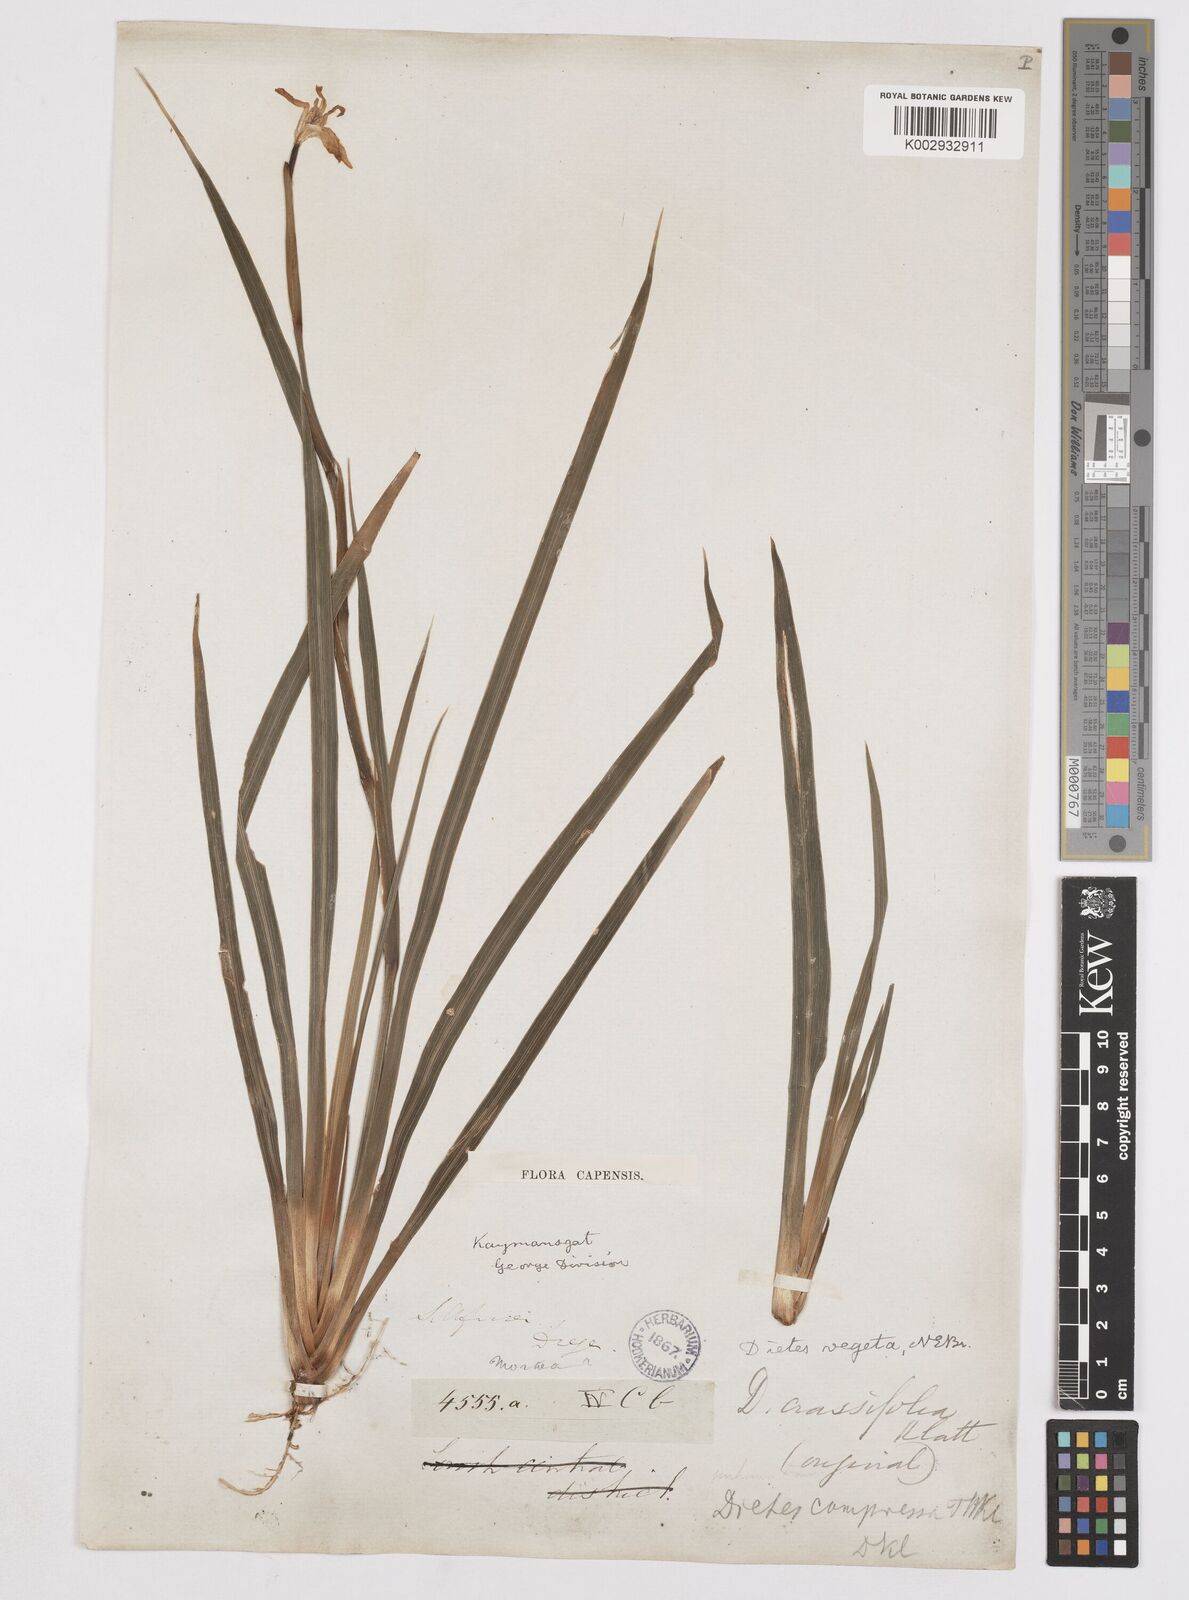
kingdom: Plantae
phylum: Tracheophyta
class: Liliopsida
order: Asparagales
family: Iridaceae
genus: Dietes
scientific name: Dietes iridioides
